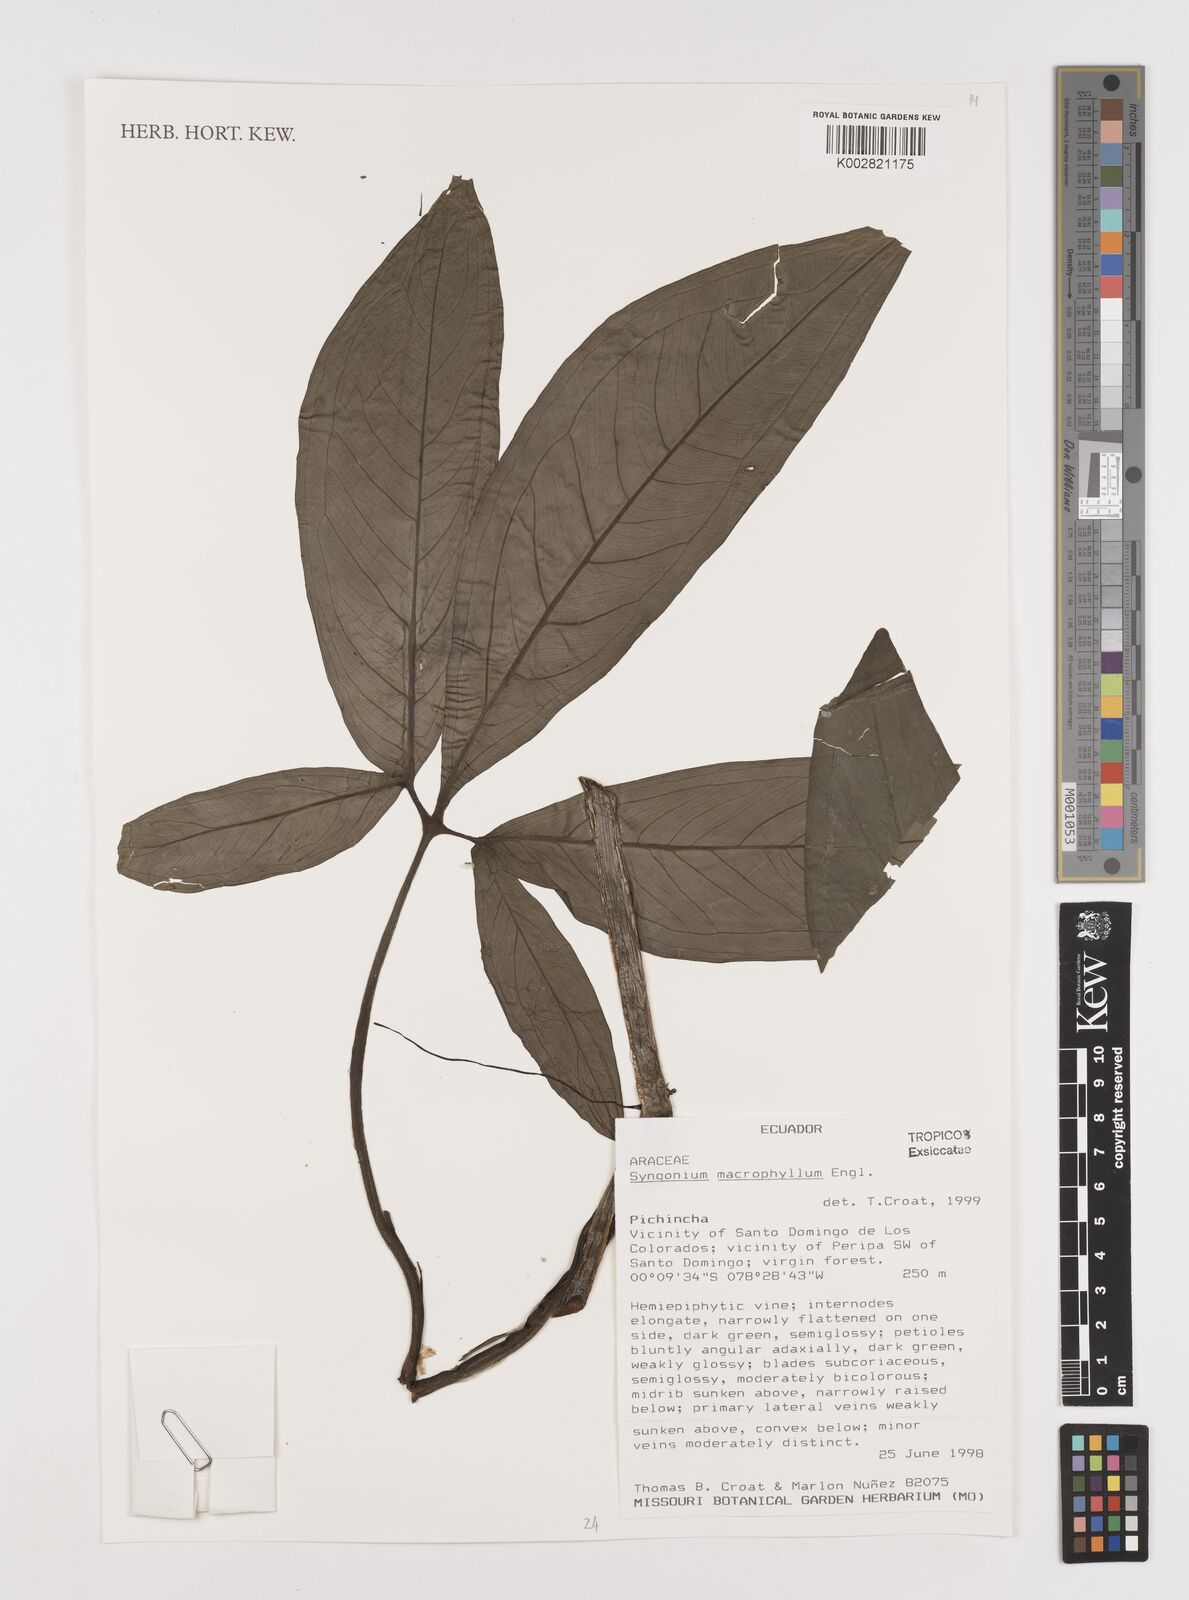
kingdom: Plantae
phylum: Tracheophyta
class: Liliopsida
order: Alismatales
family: Araceae
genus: Syngonium
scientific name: Syngonium macrophyllum
